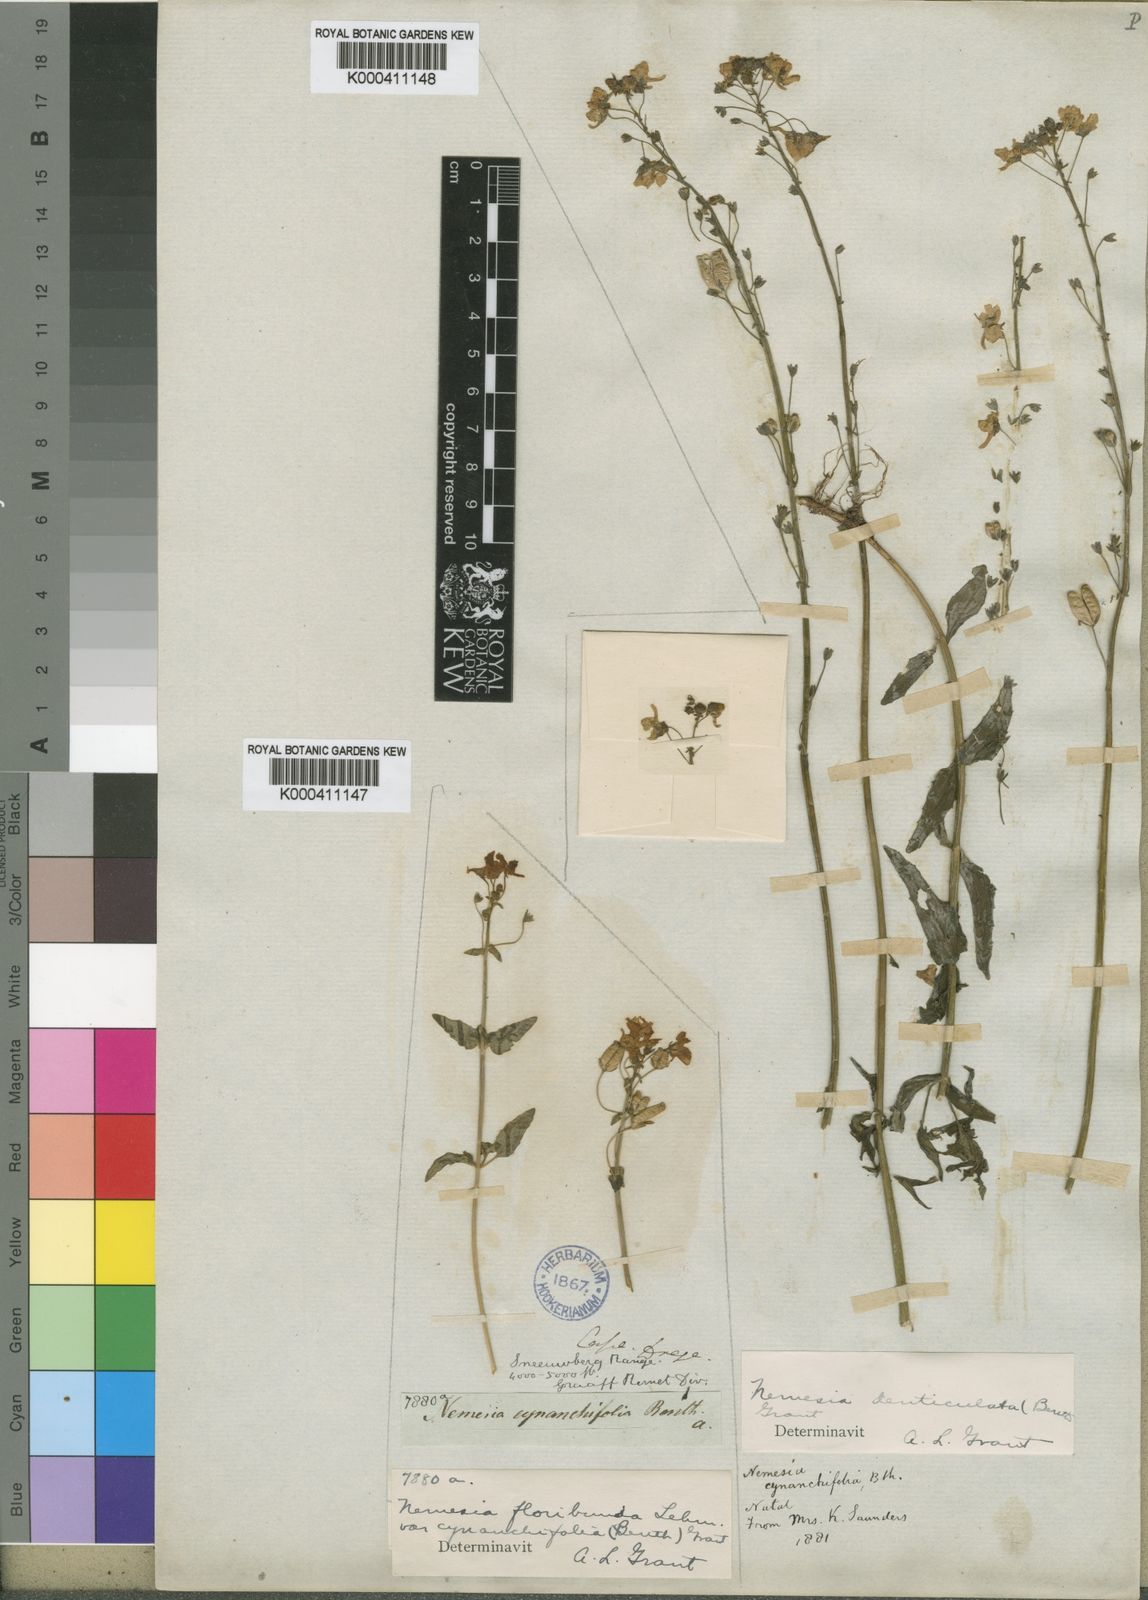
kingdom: Plantae
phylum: Tracheophyta
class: Magnoliopsida
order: Lamiales
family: Scrophulariaceae
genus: Nemesia
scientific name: Nemesia cynanchifolia
